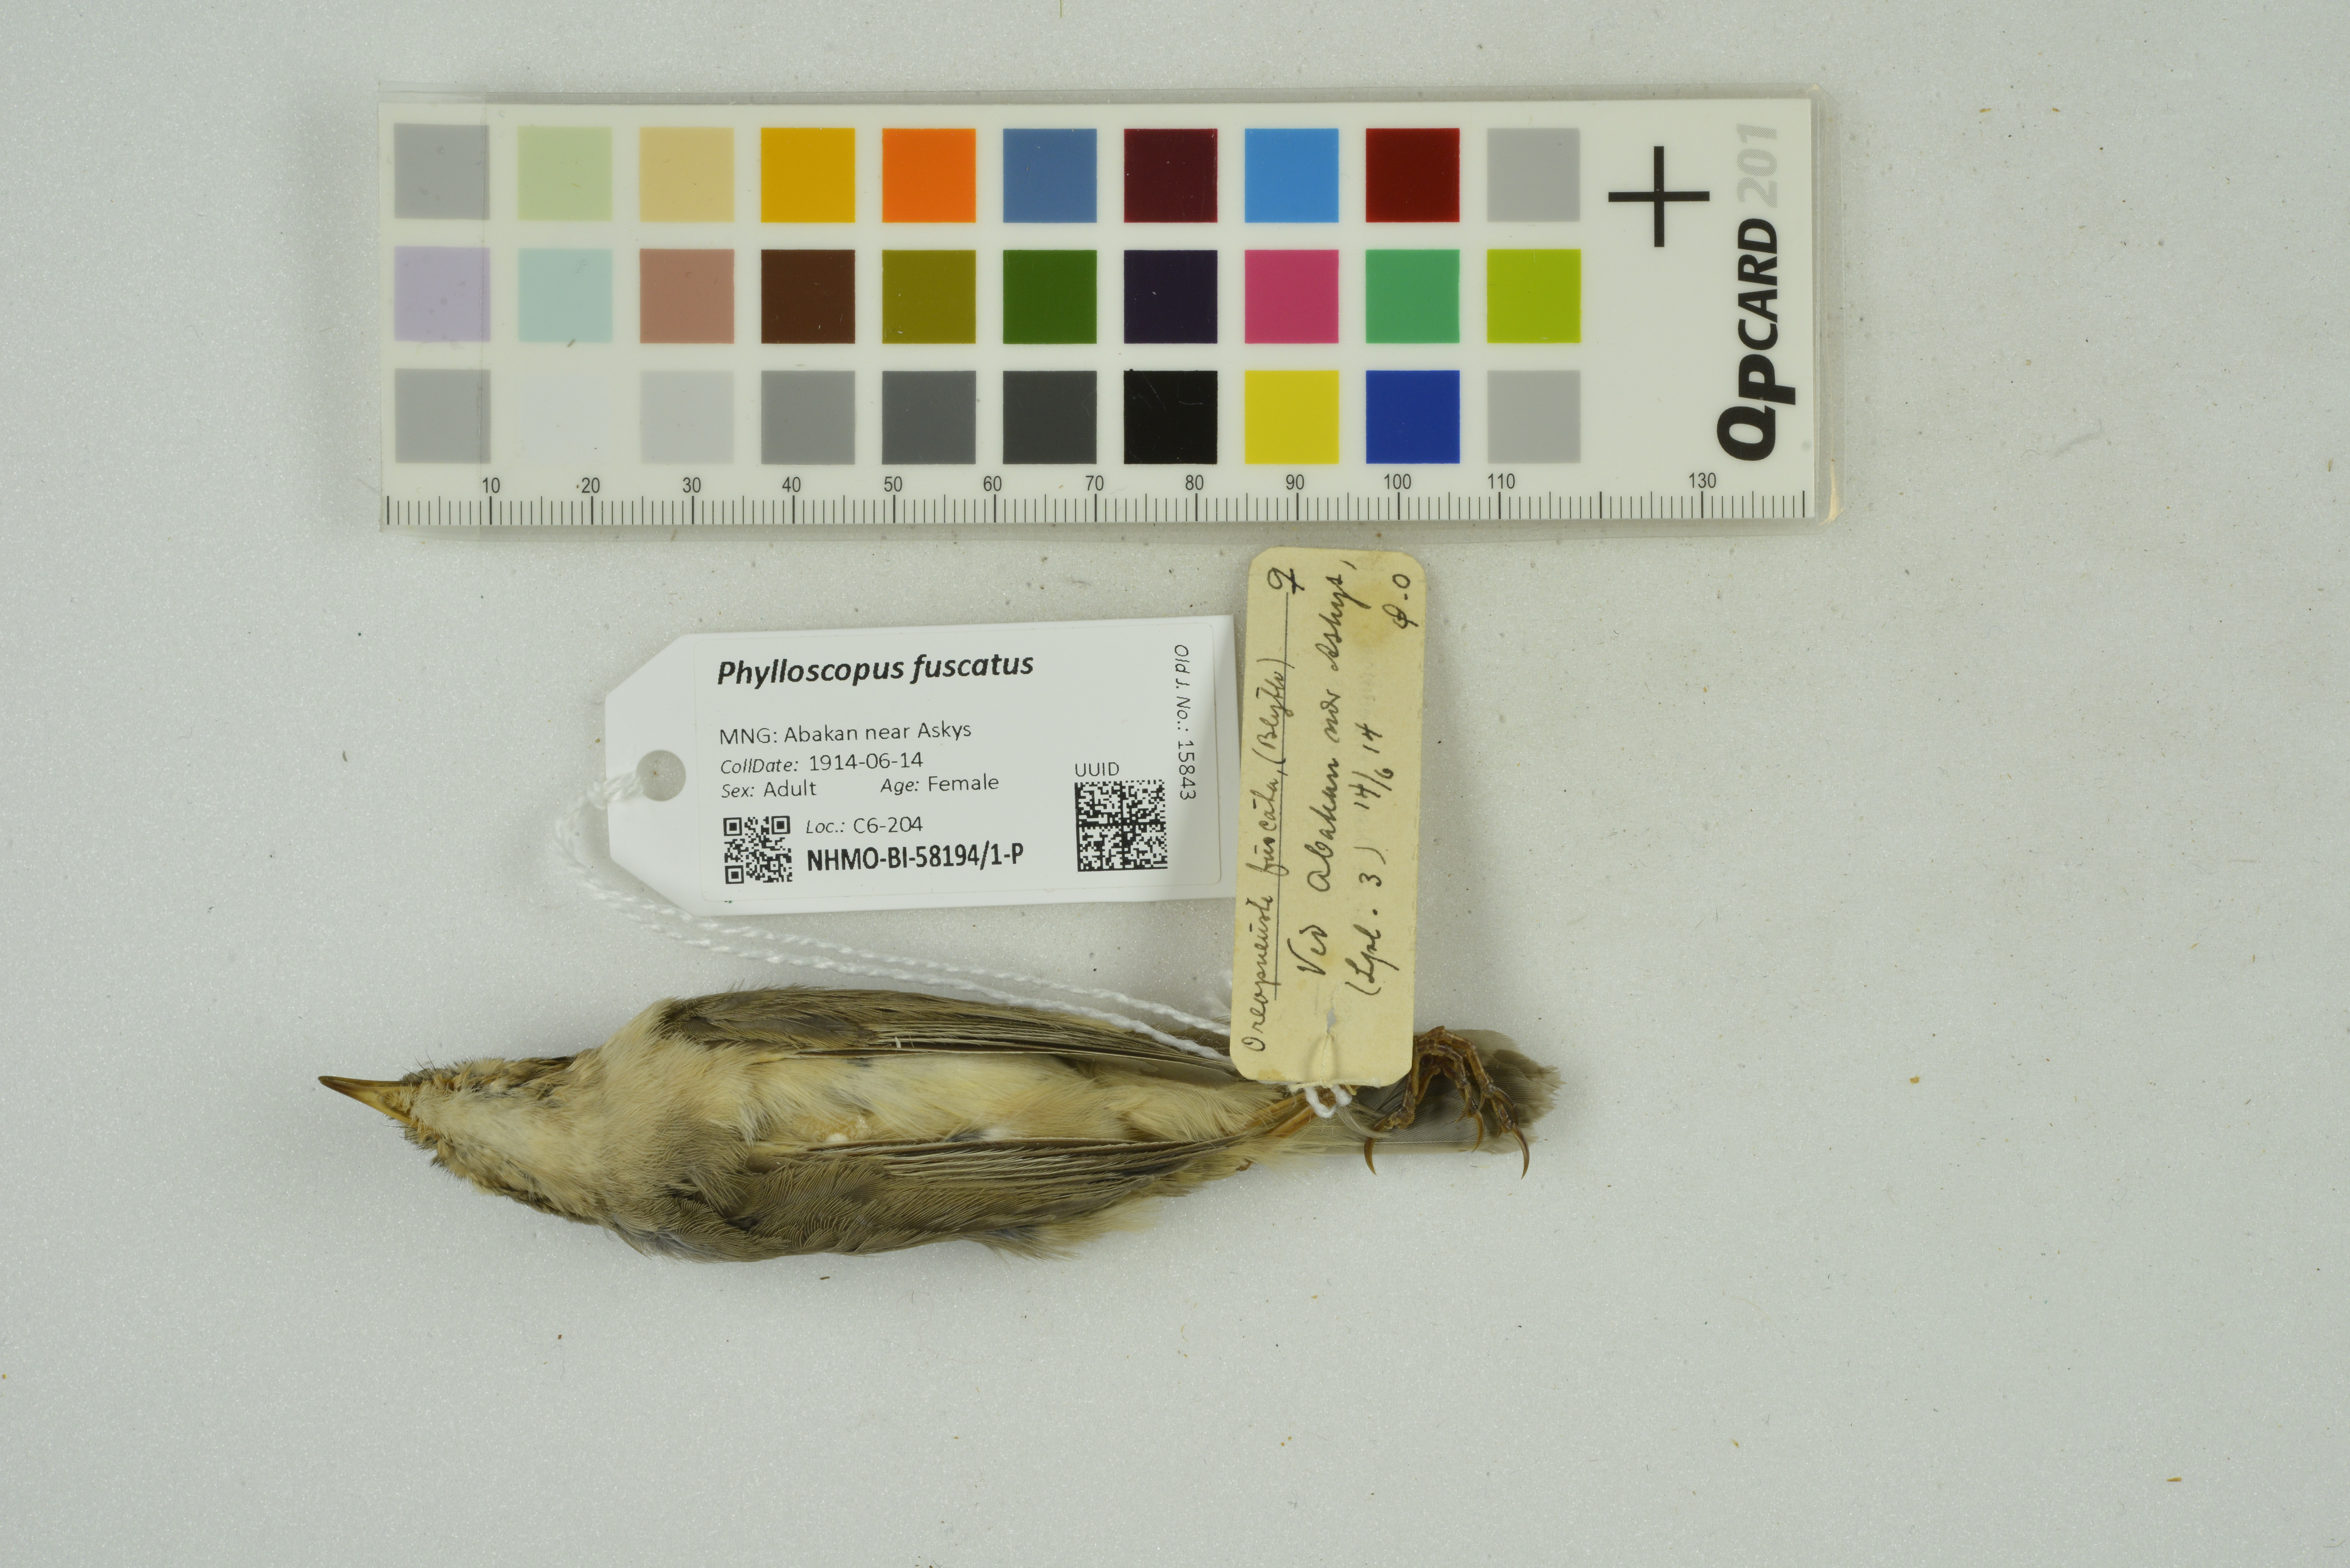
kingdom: Animalia
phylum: Chordata
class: Aves
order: Passeriformes
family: Phylloscopidae
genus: Phylloscopus
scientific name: Phylloscopus fuscatus
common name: Dusky warbler
